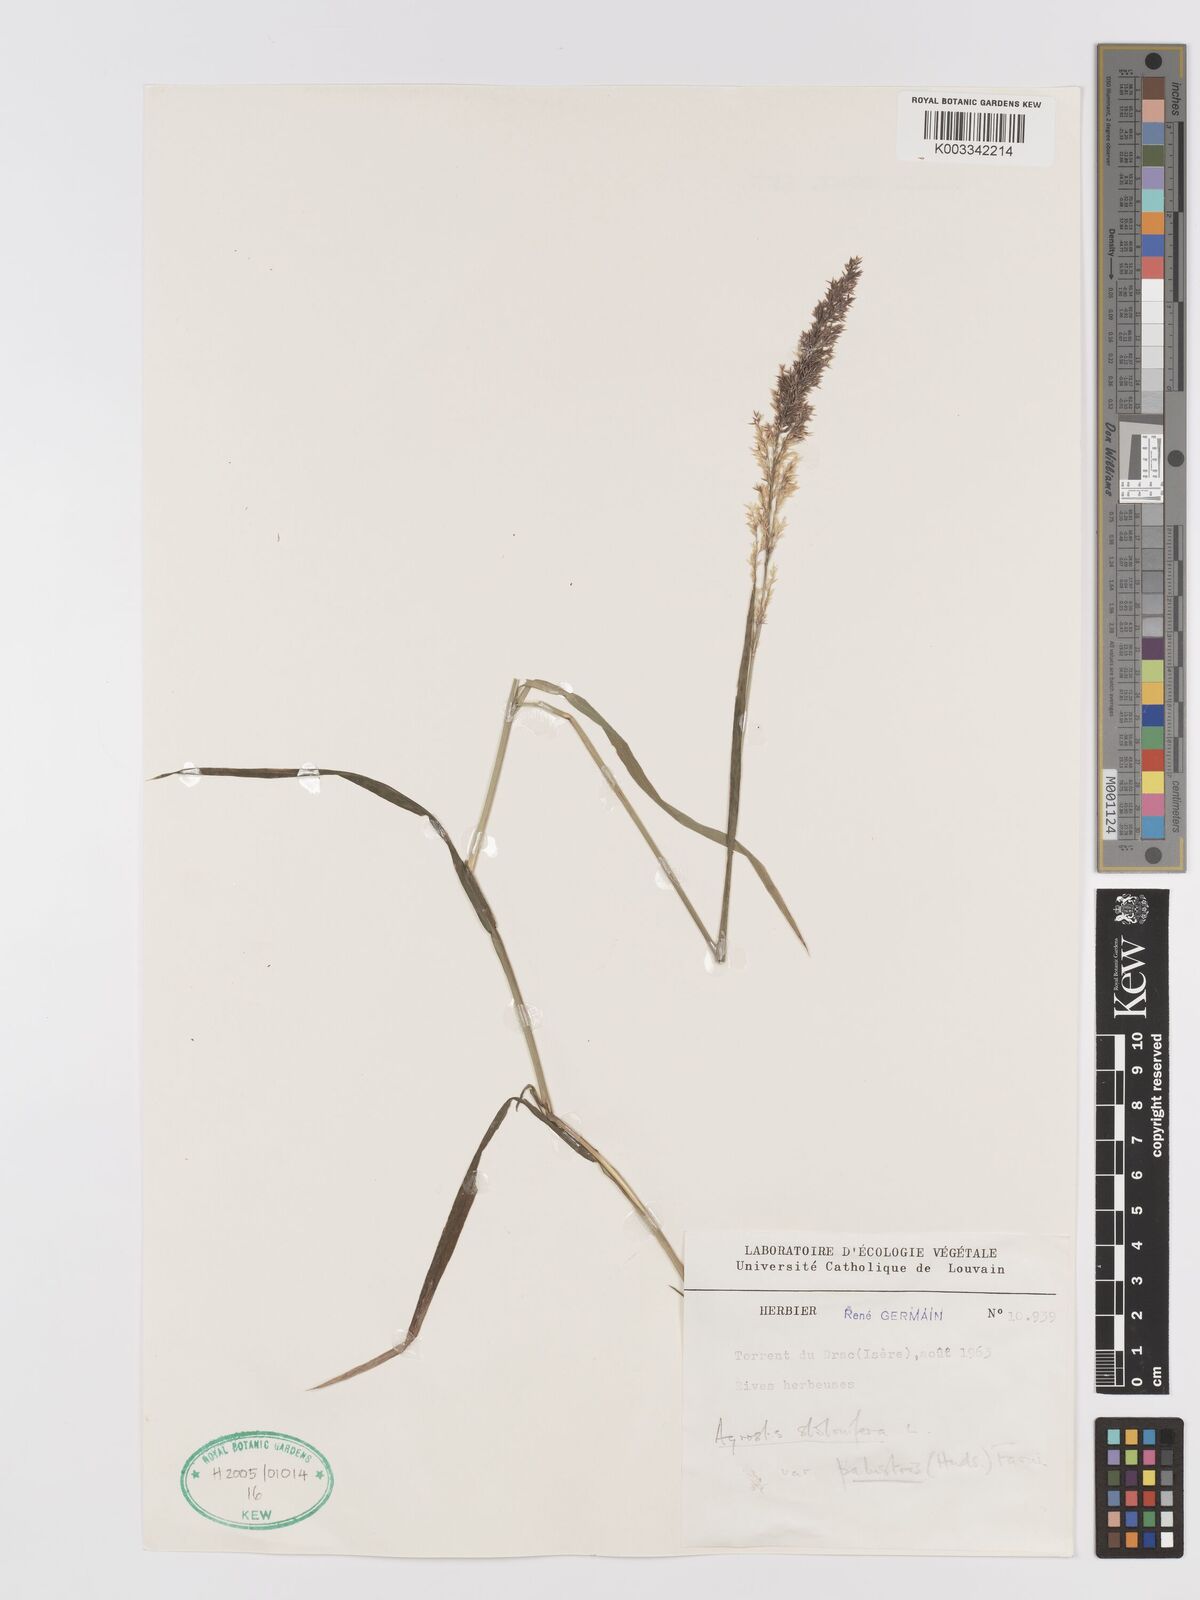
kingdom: Plantae
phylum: Tracheophyta
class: Liliopsida
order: Poales
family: Poaceae
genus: Agrostis
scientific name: Agrostis stolonifera
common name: Creeping bentgrass
